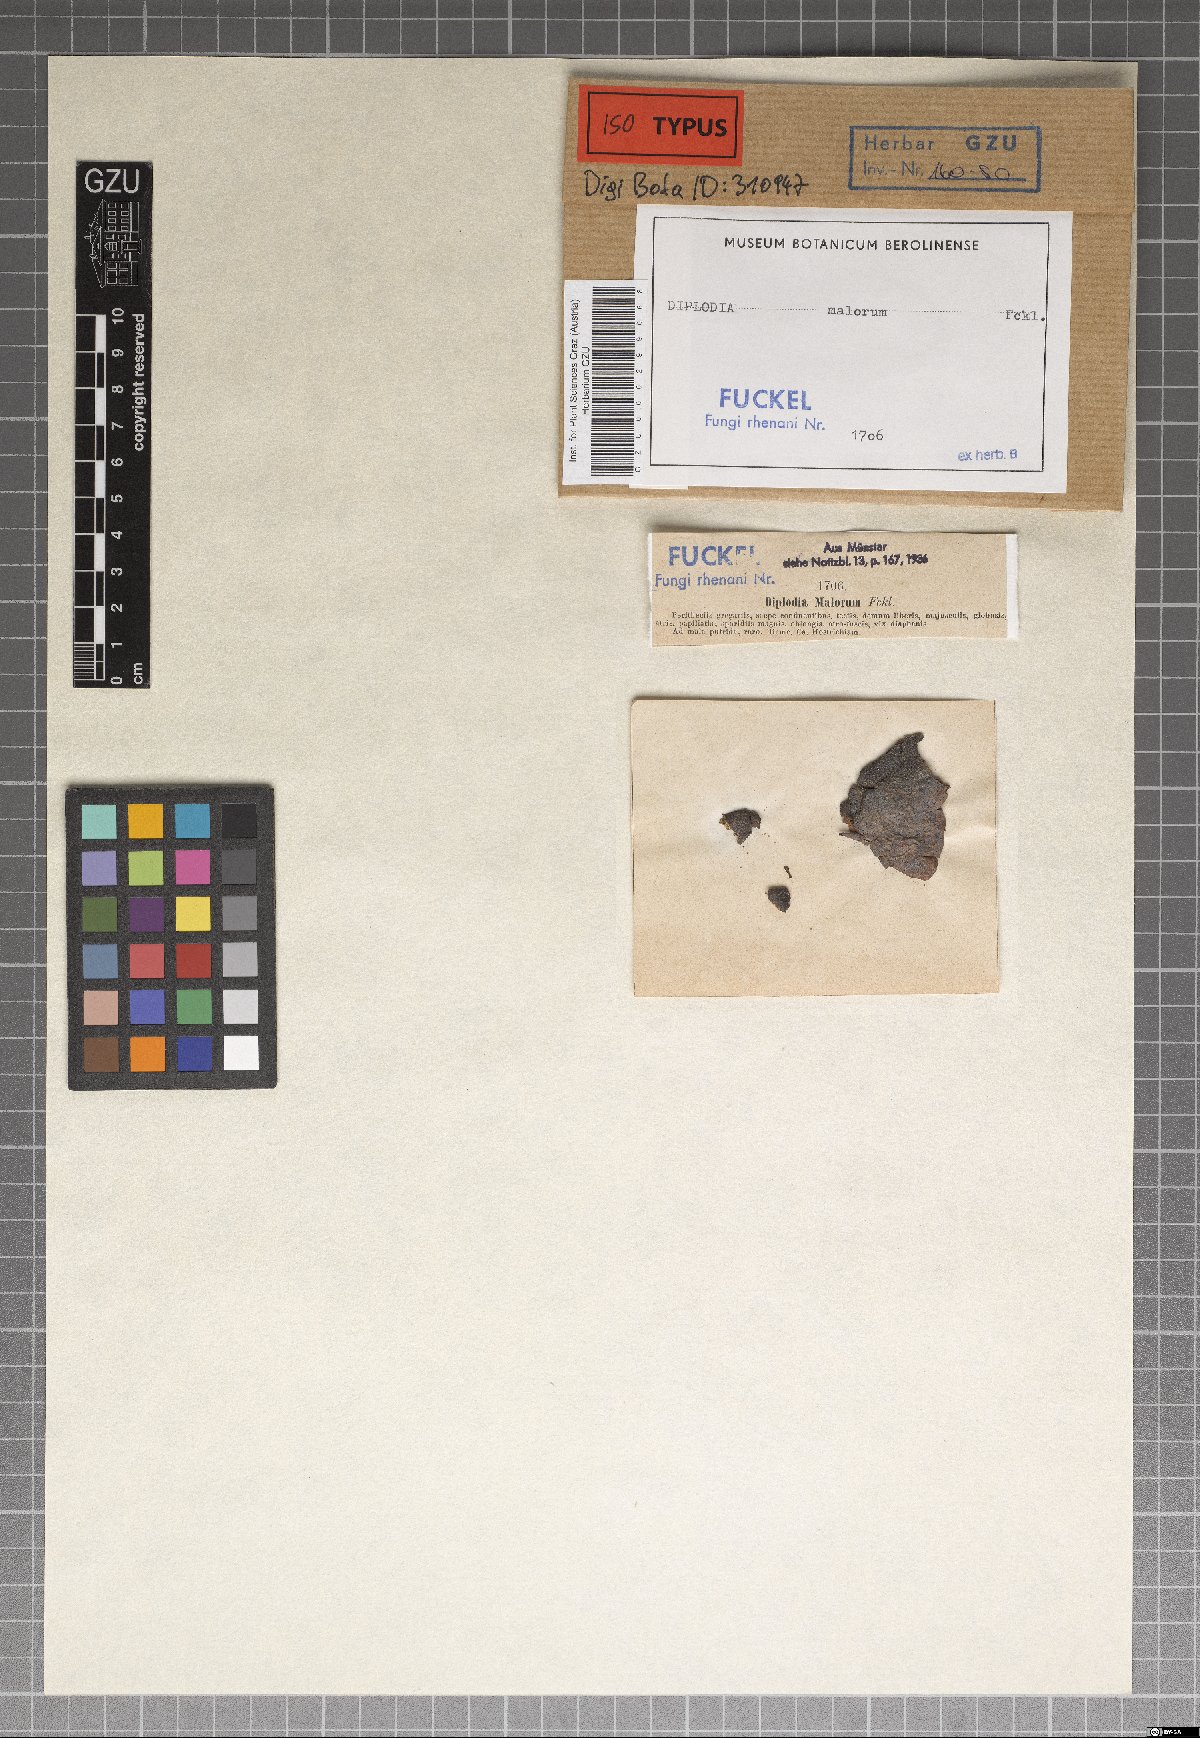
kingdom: Fungi
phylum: Ascomycota
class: Dothideomycetes
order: Botryosphaeriales
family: Botryosphaeriaceae
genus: Diplodia
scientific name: Diplodia malorum
